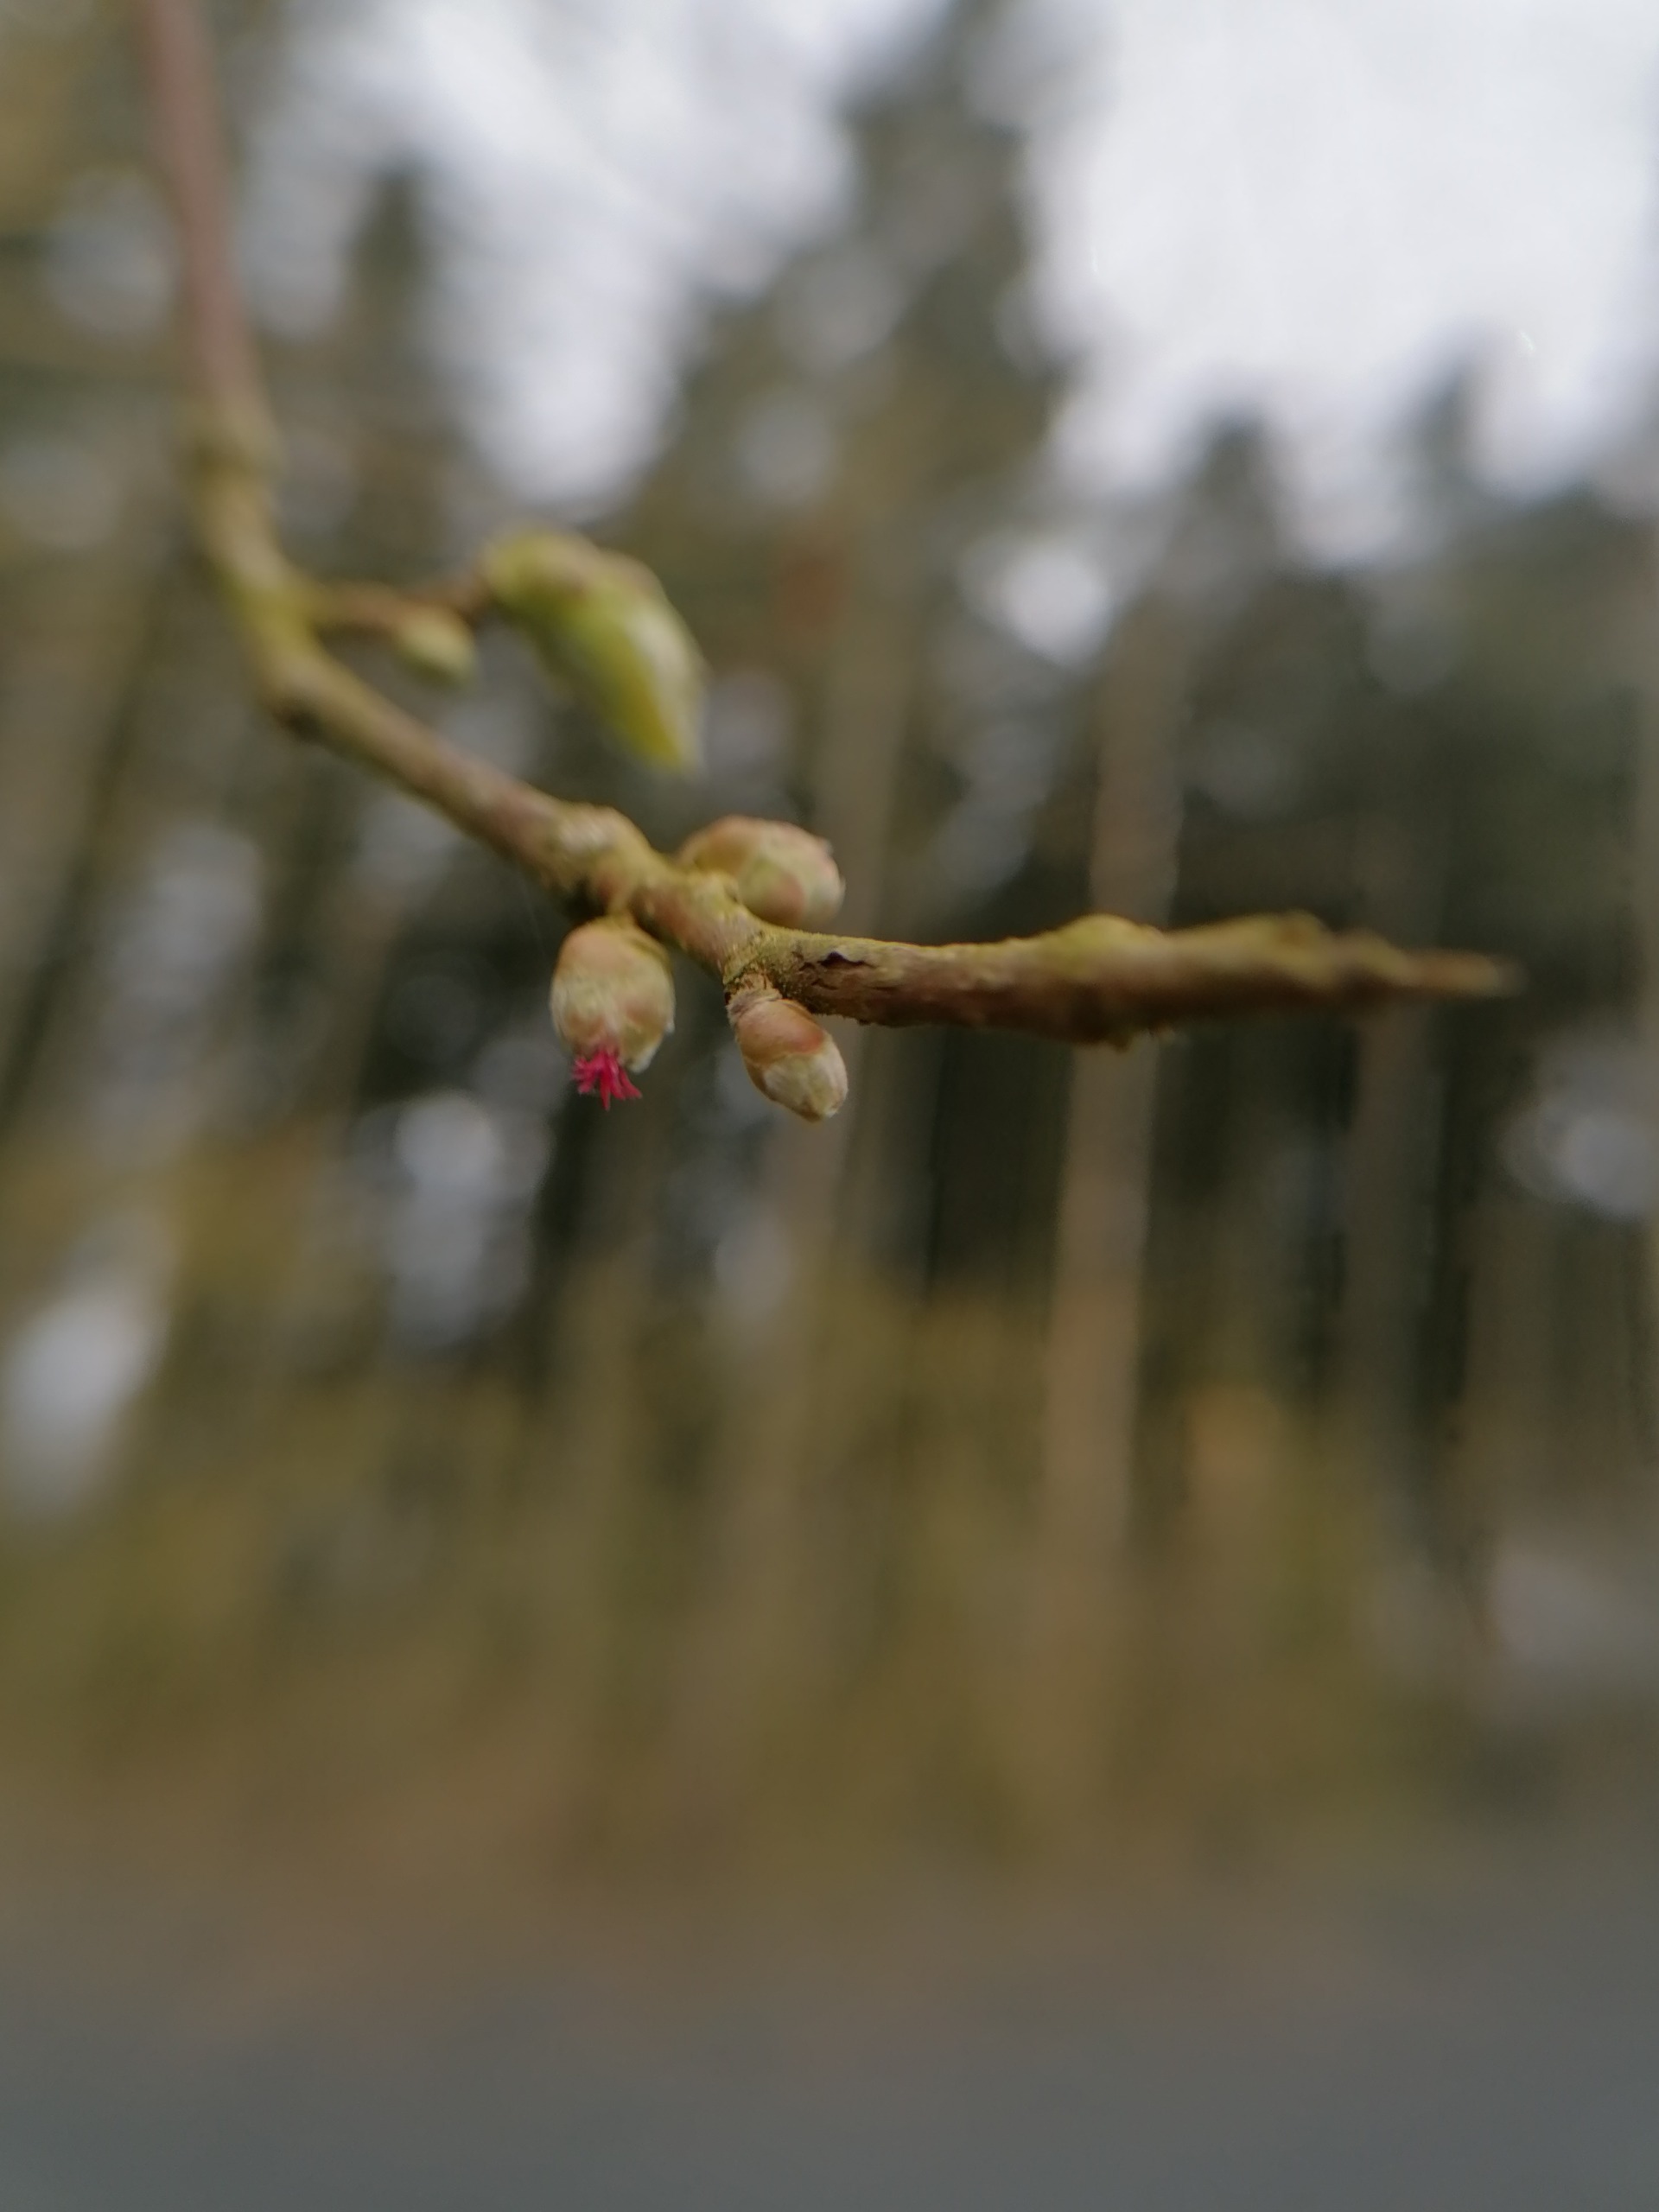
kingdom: Plantae
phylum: Tracheophyta
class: Magnoliopsida
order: Fagales
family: Betulaceae
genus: Corylus
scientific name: Corylus avellana
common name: Hassel
